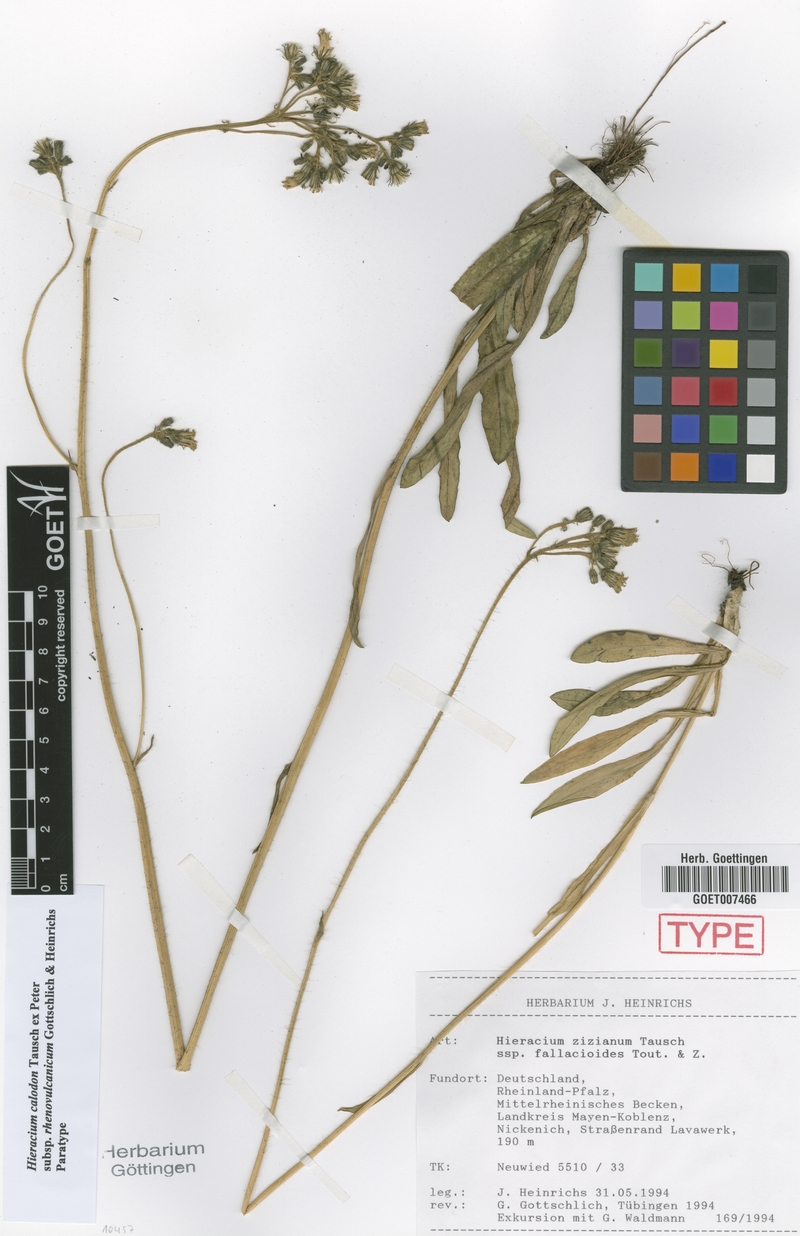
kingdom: Plantae
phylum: Tracheophyta
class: Magnoliopsida
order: Asterales
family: Asteraceae
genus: Pilosella
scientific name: Pilosella calodon
